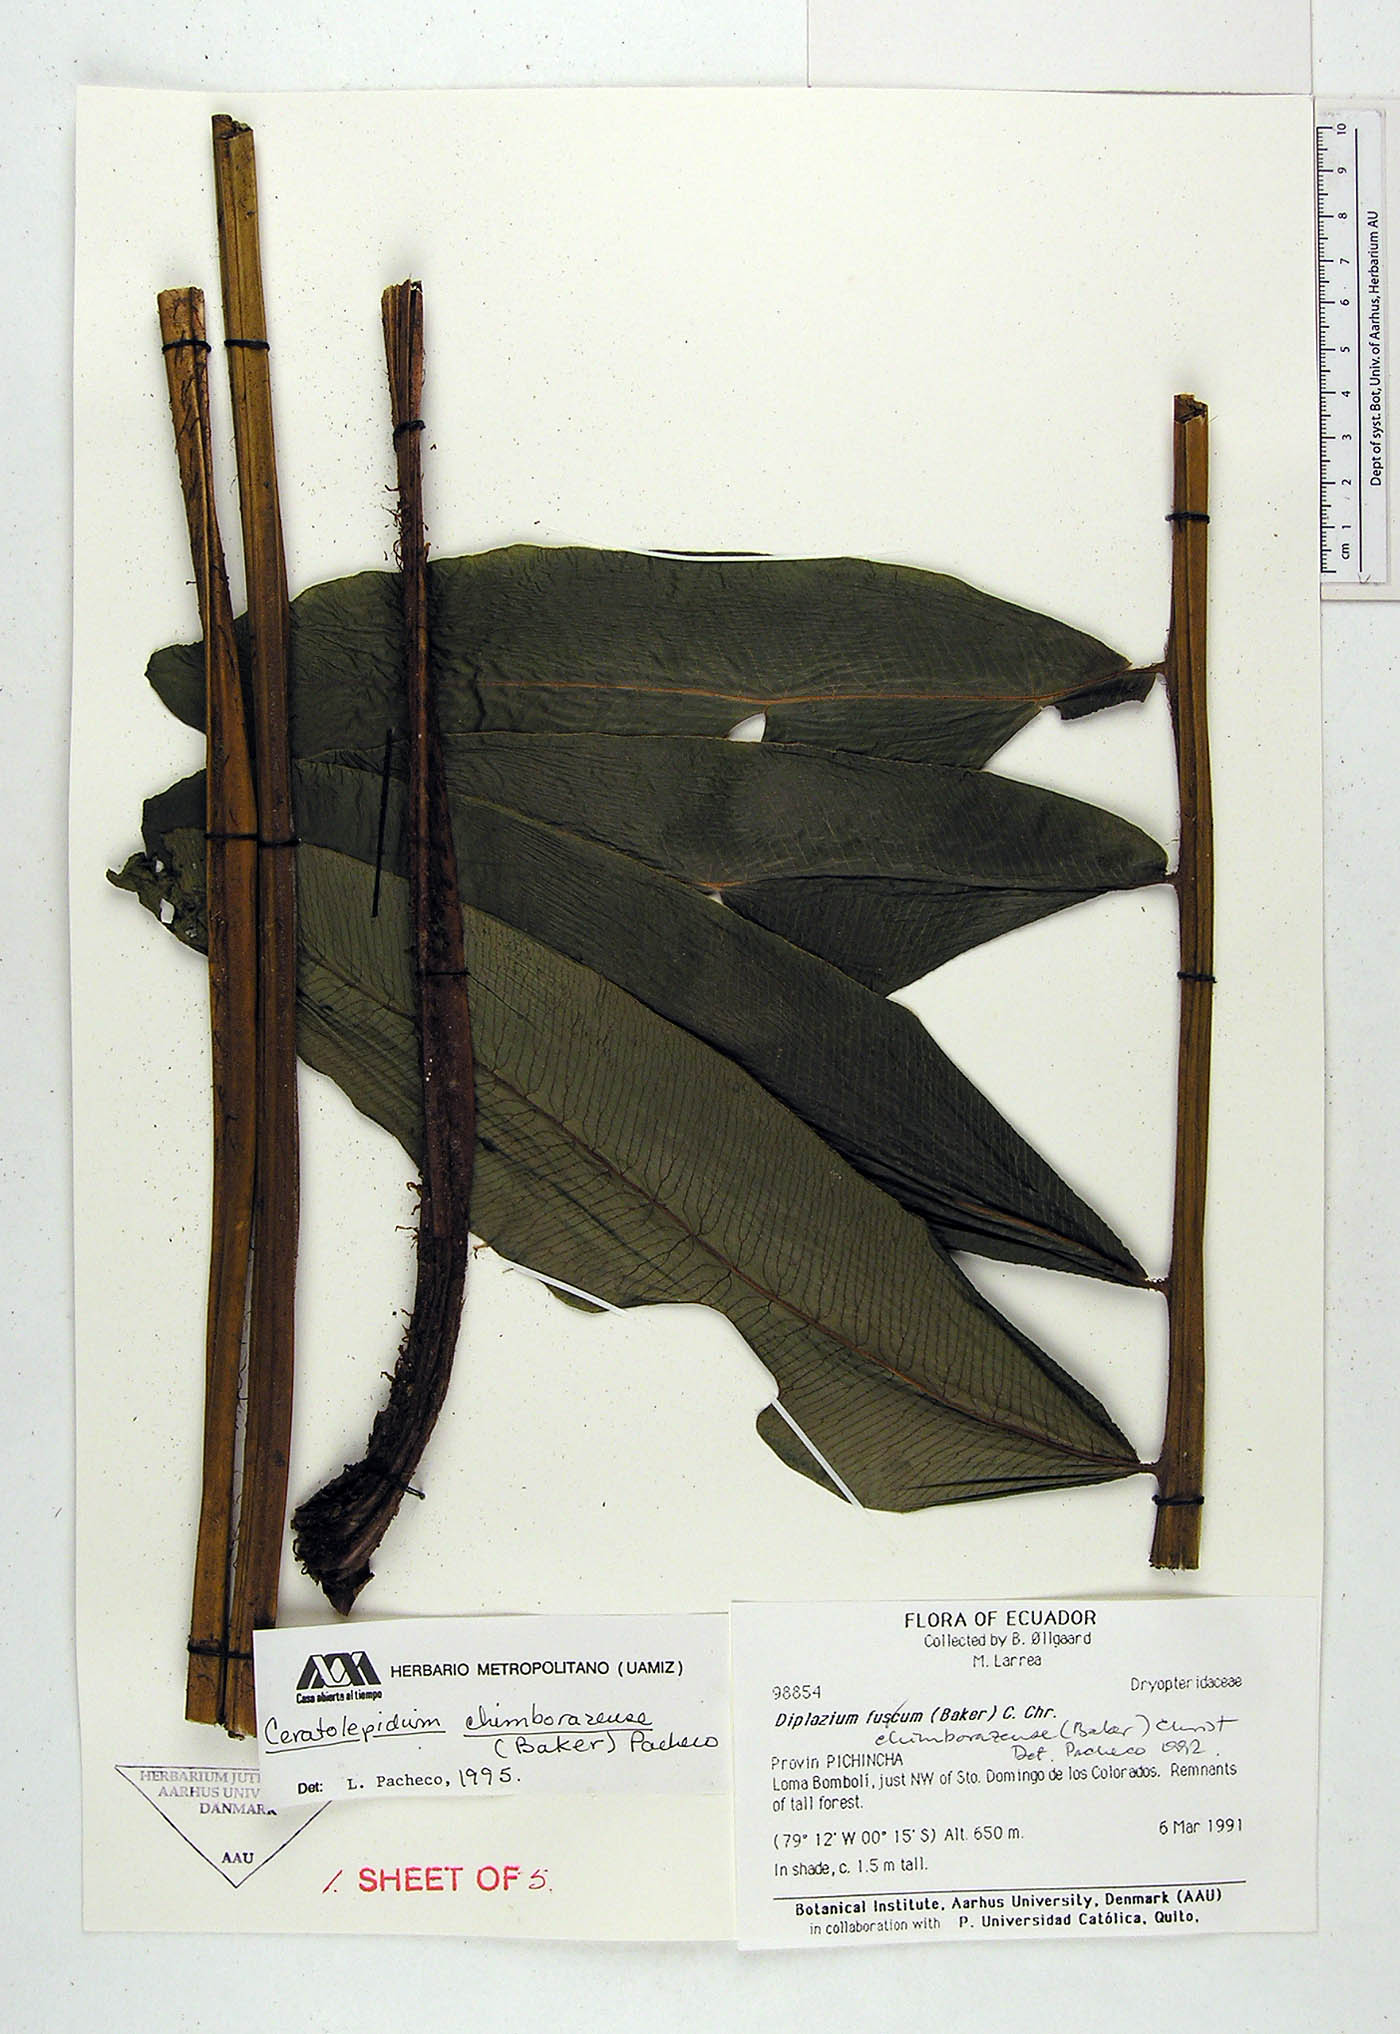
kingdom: Plantae
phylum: Tracheophyta
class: Polypodiopsida
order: Polypodiales
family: Athyriaceae
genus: Diplazium
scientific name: Diplazium chimborazense
